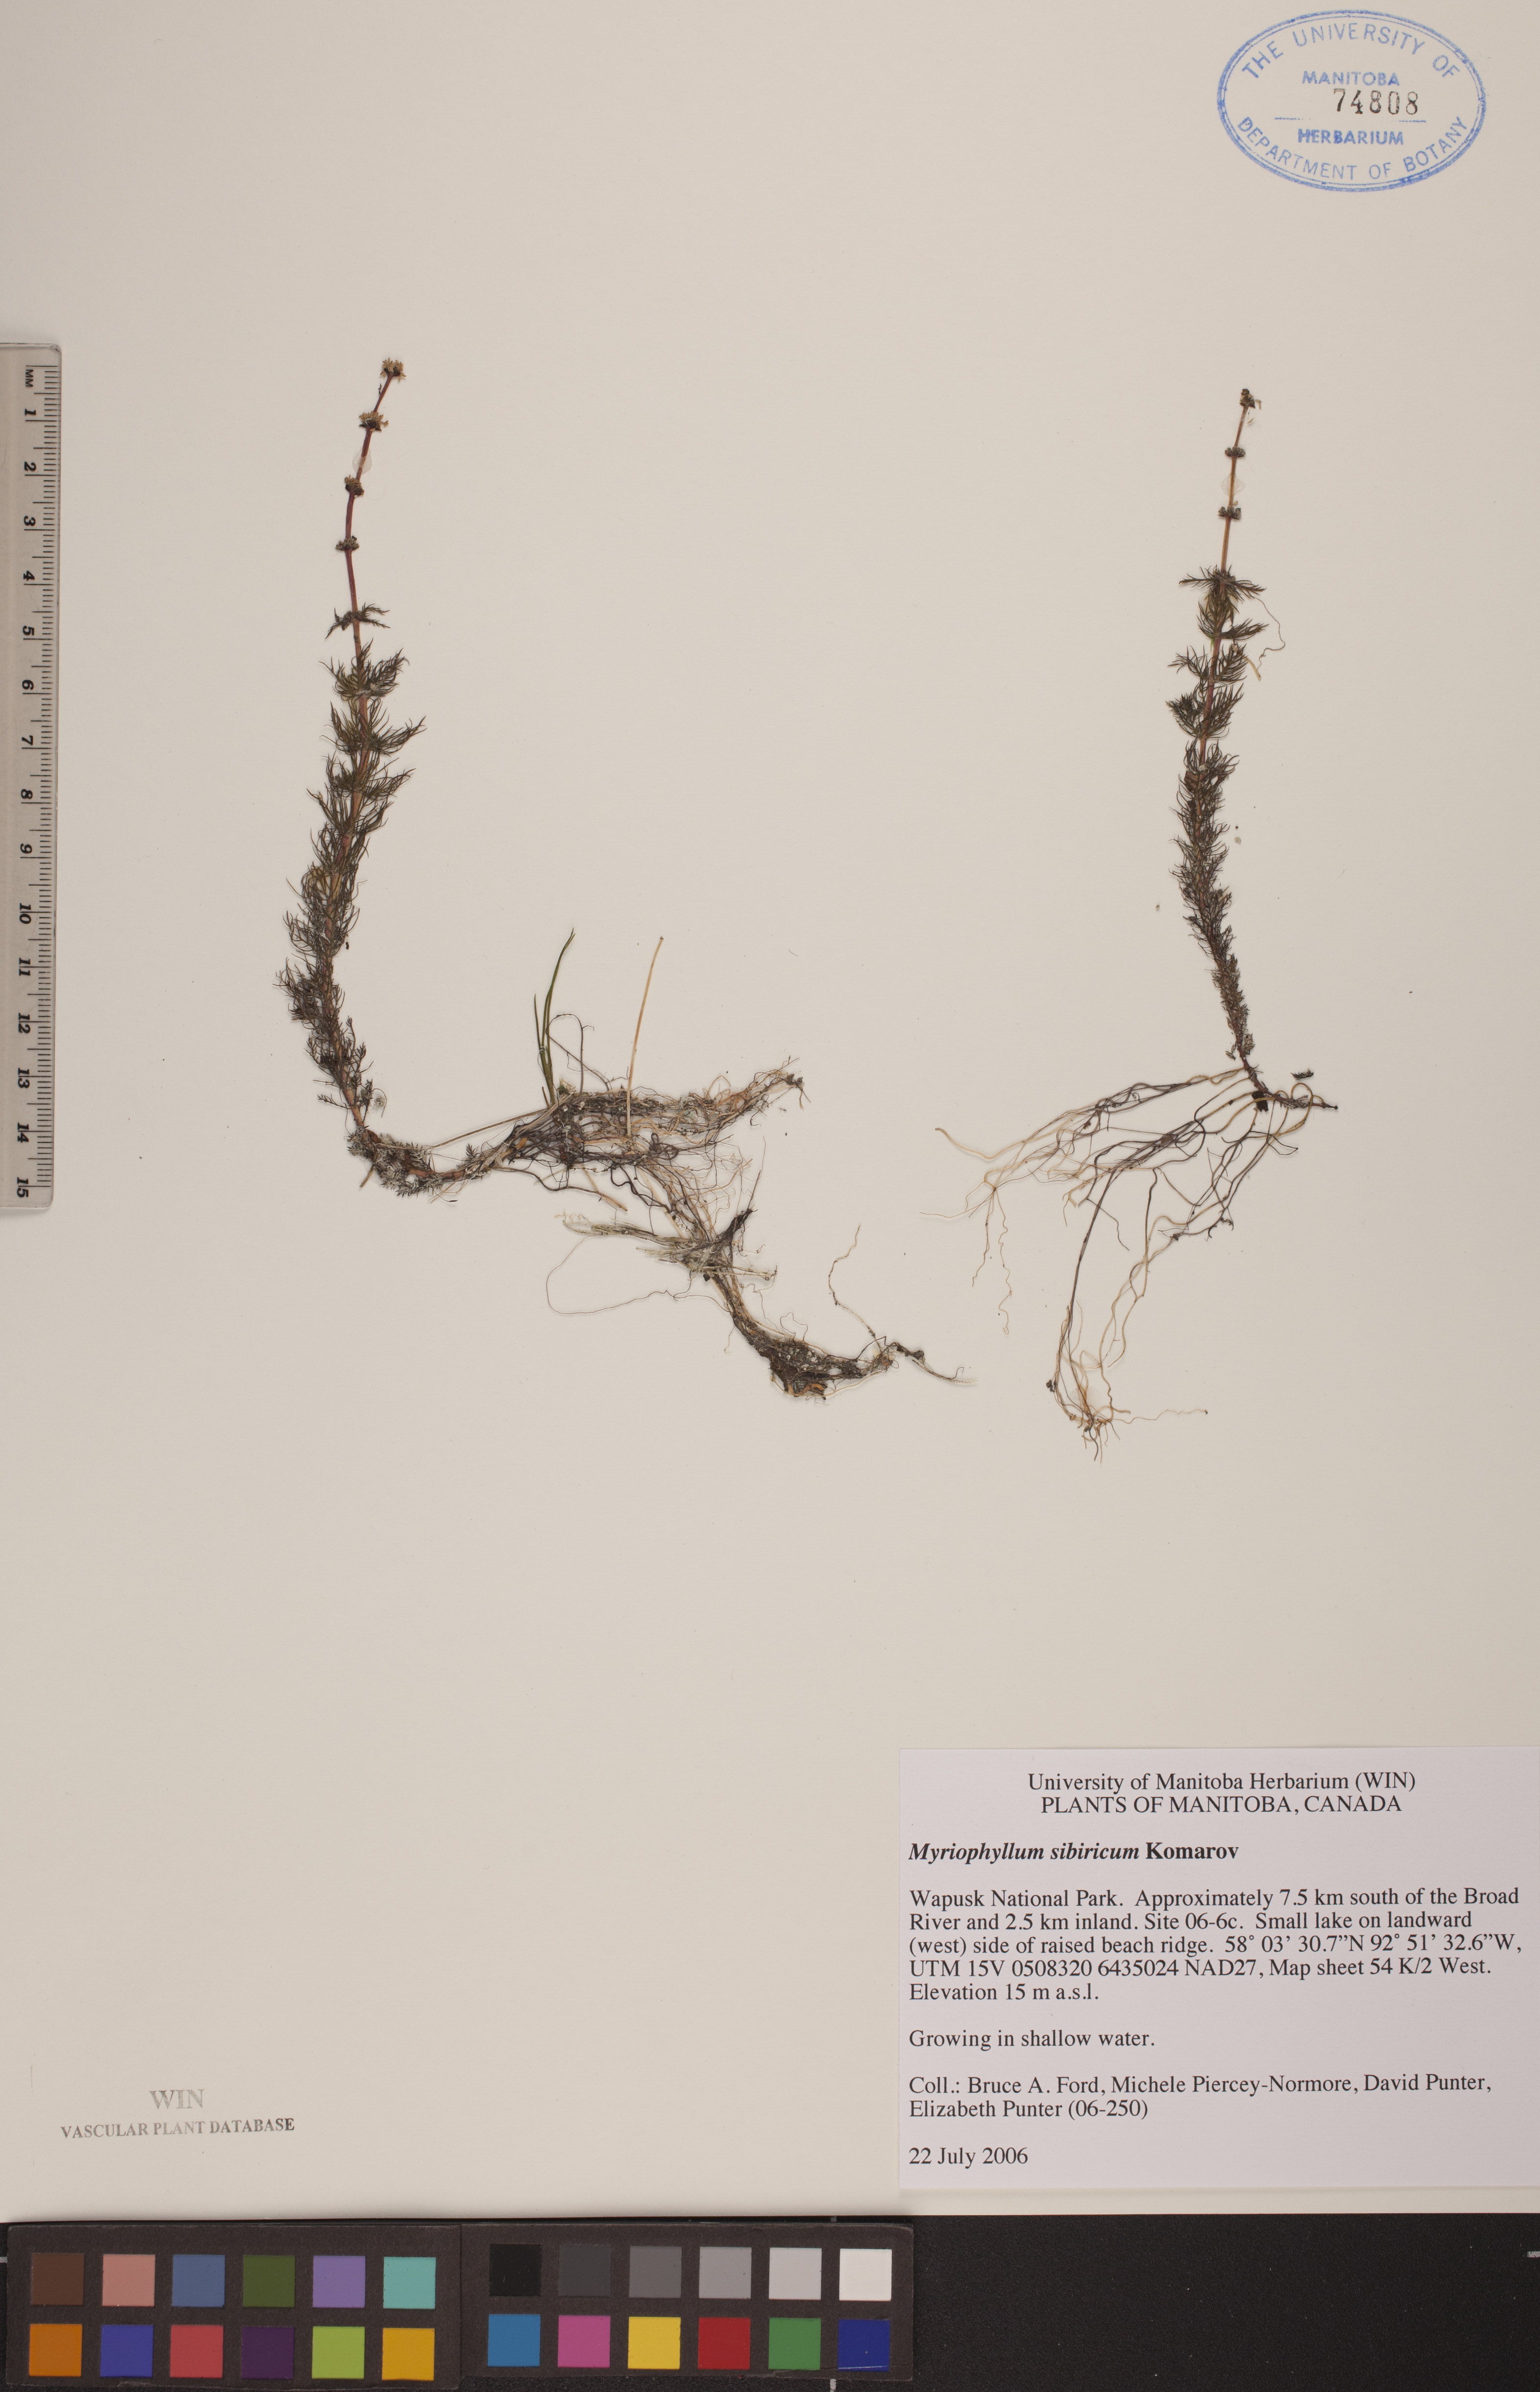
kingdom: Plantae
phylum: Tracheophyta
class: Magnoliopsida
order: Saxifragales
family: Haloragaceae
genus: Myriophyllum
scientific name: Myriophyllum sibiricum
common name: Siberian water-milfoil
